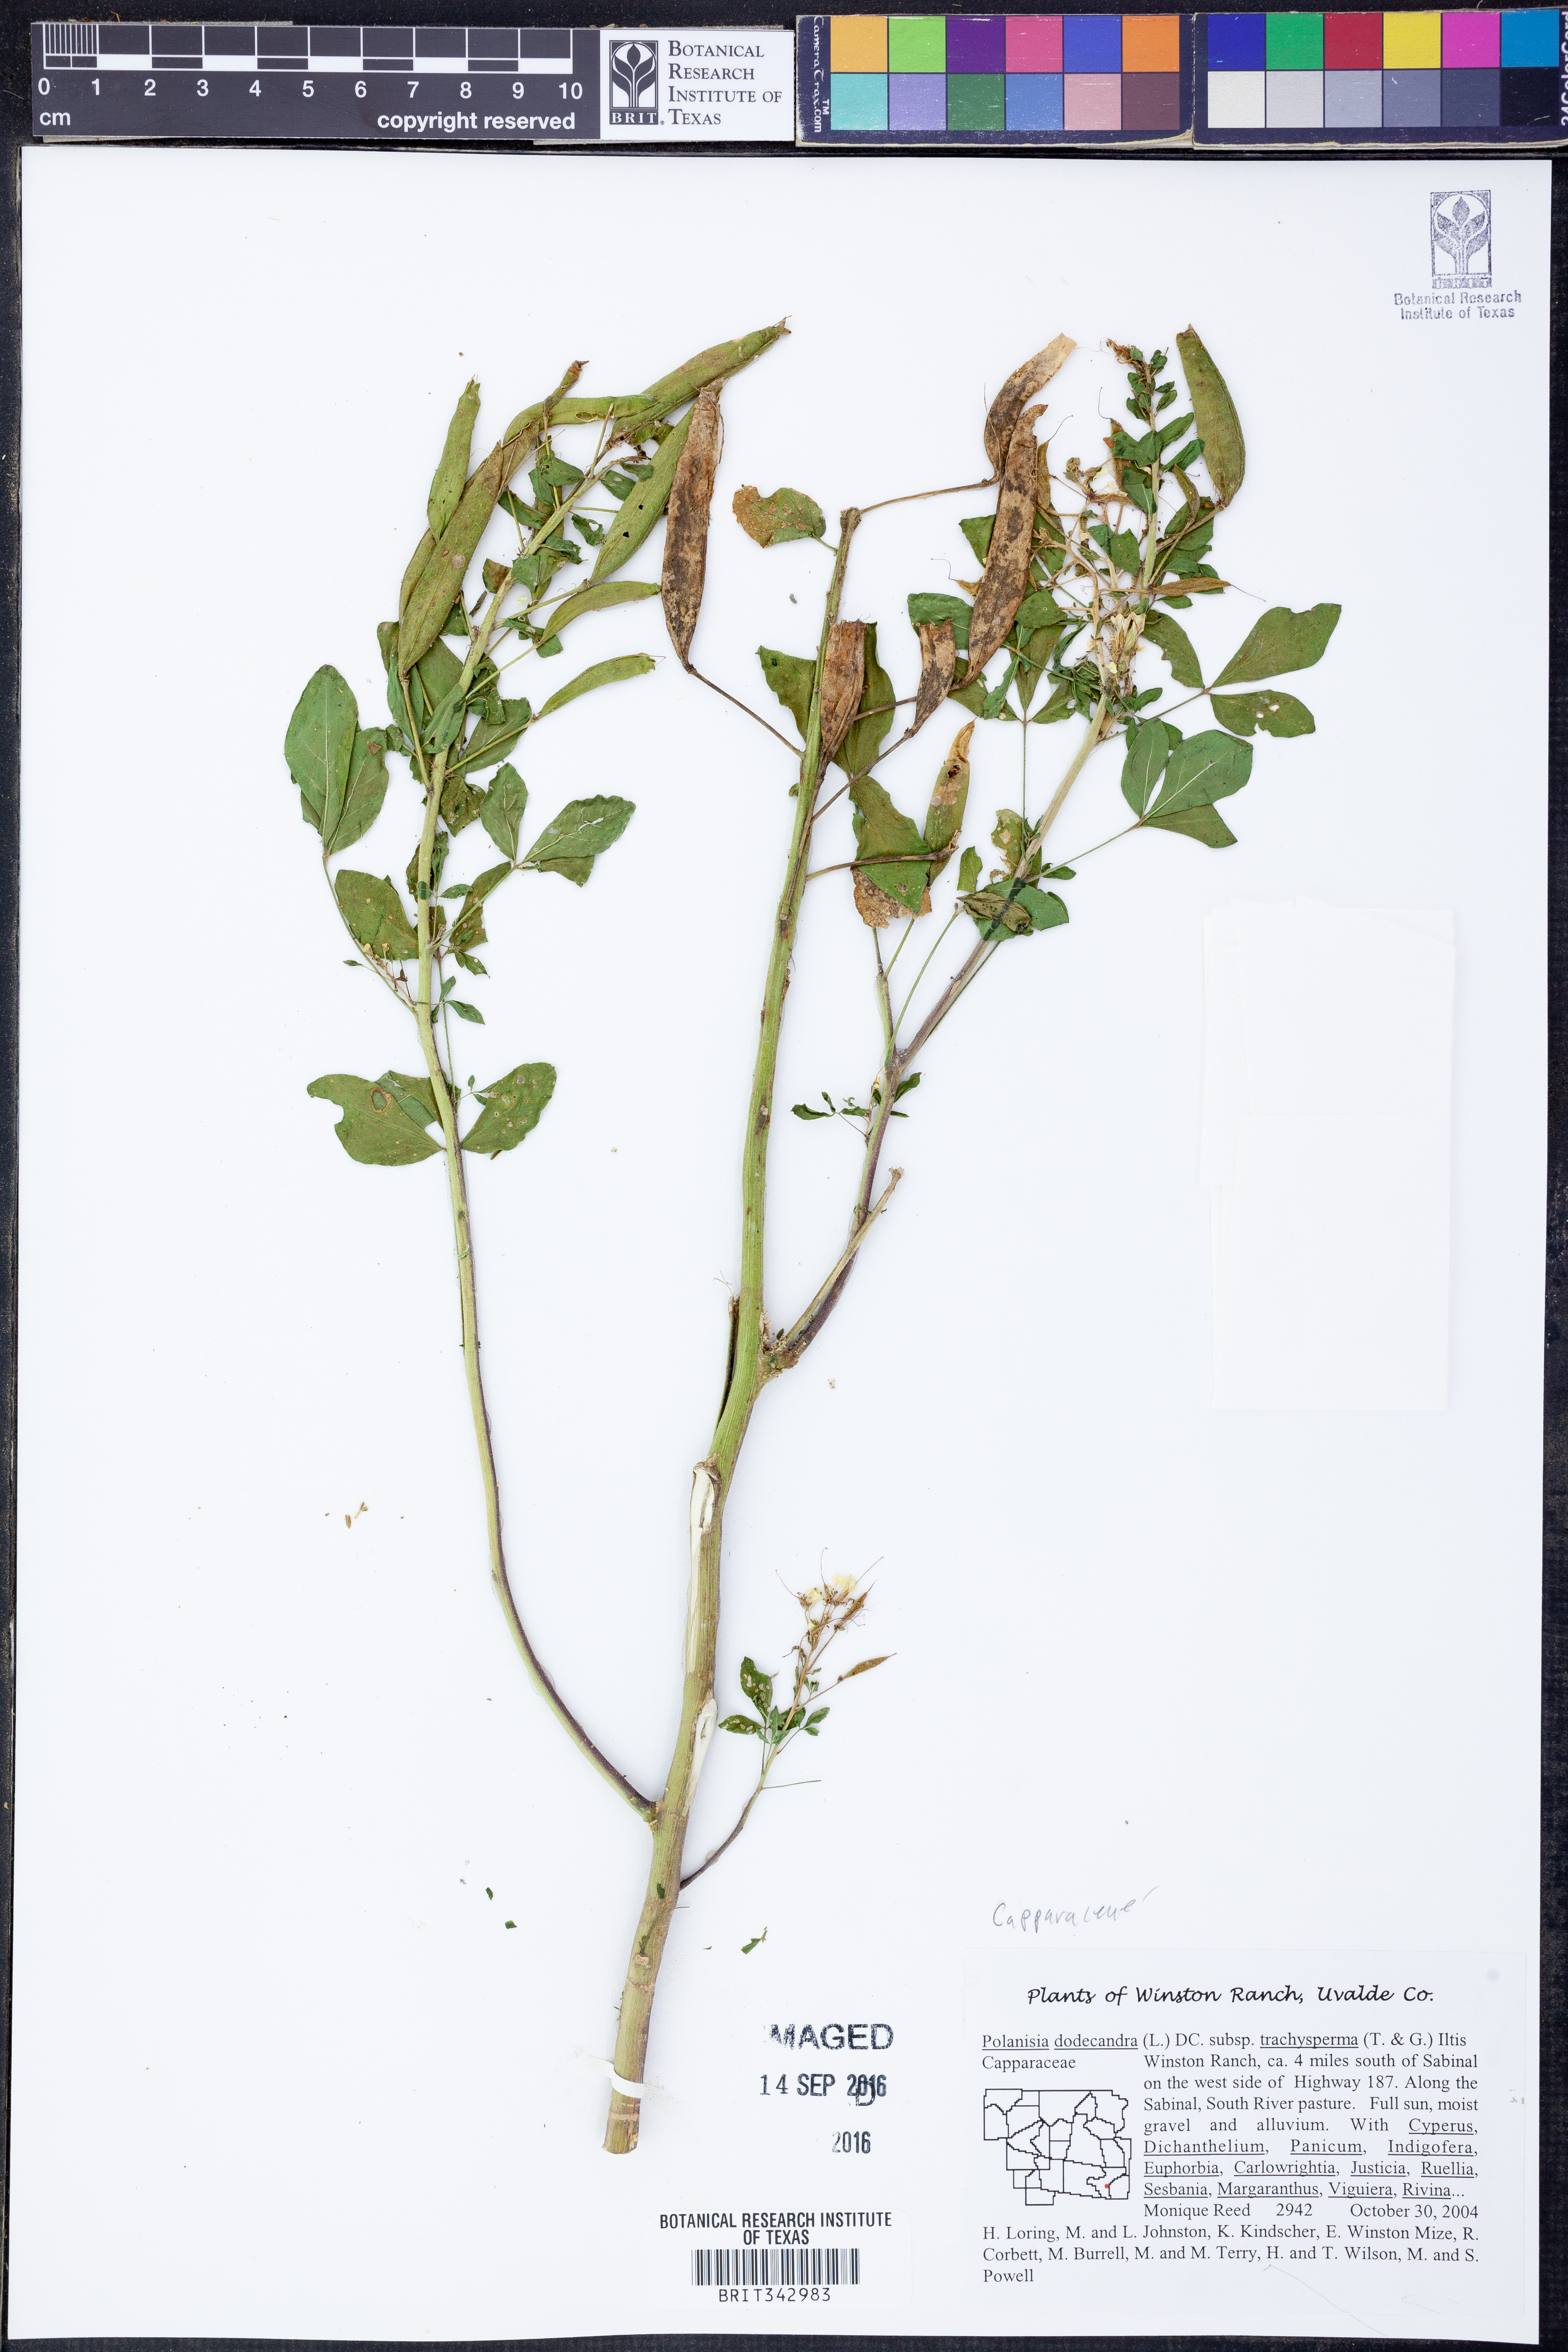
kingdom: Plantae
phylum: Tracheophyta
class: Magnoliopsida
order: Brassicales
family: Cleomaceae
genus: Polanisia
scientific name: Polanisia trachysperma
